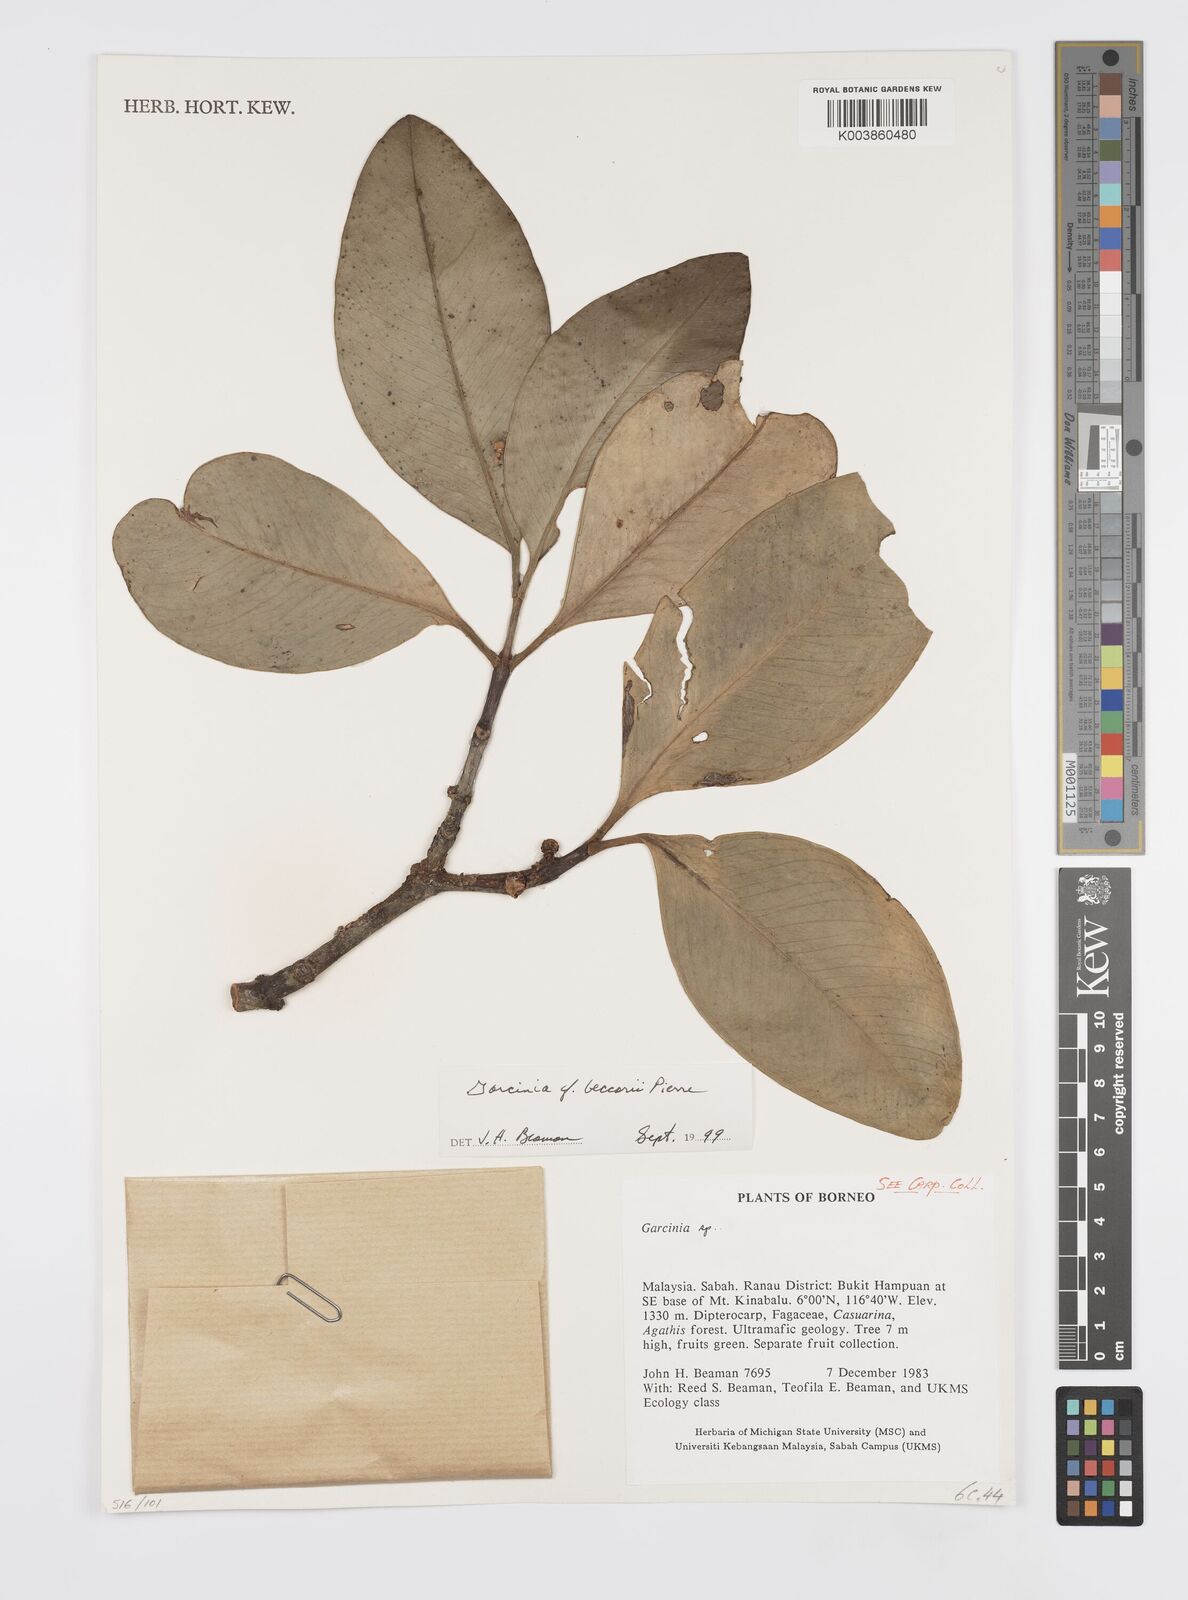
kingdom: Plantae
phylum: Tracheophyta
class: Magnoliopsida
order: Malpighiales
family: Clusiaceae
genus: Garcinia
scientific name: Garcinia beccarii
